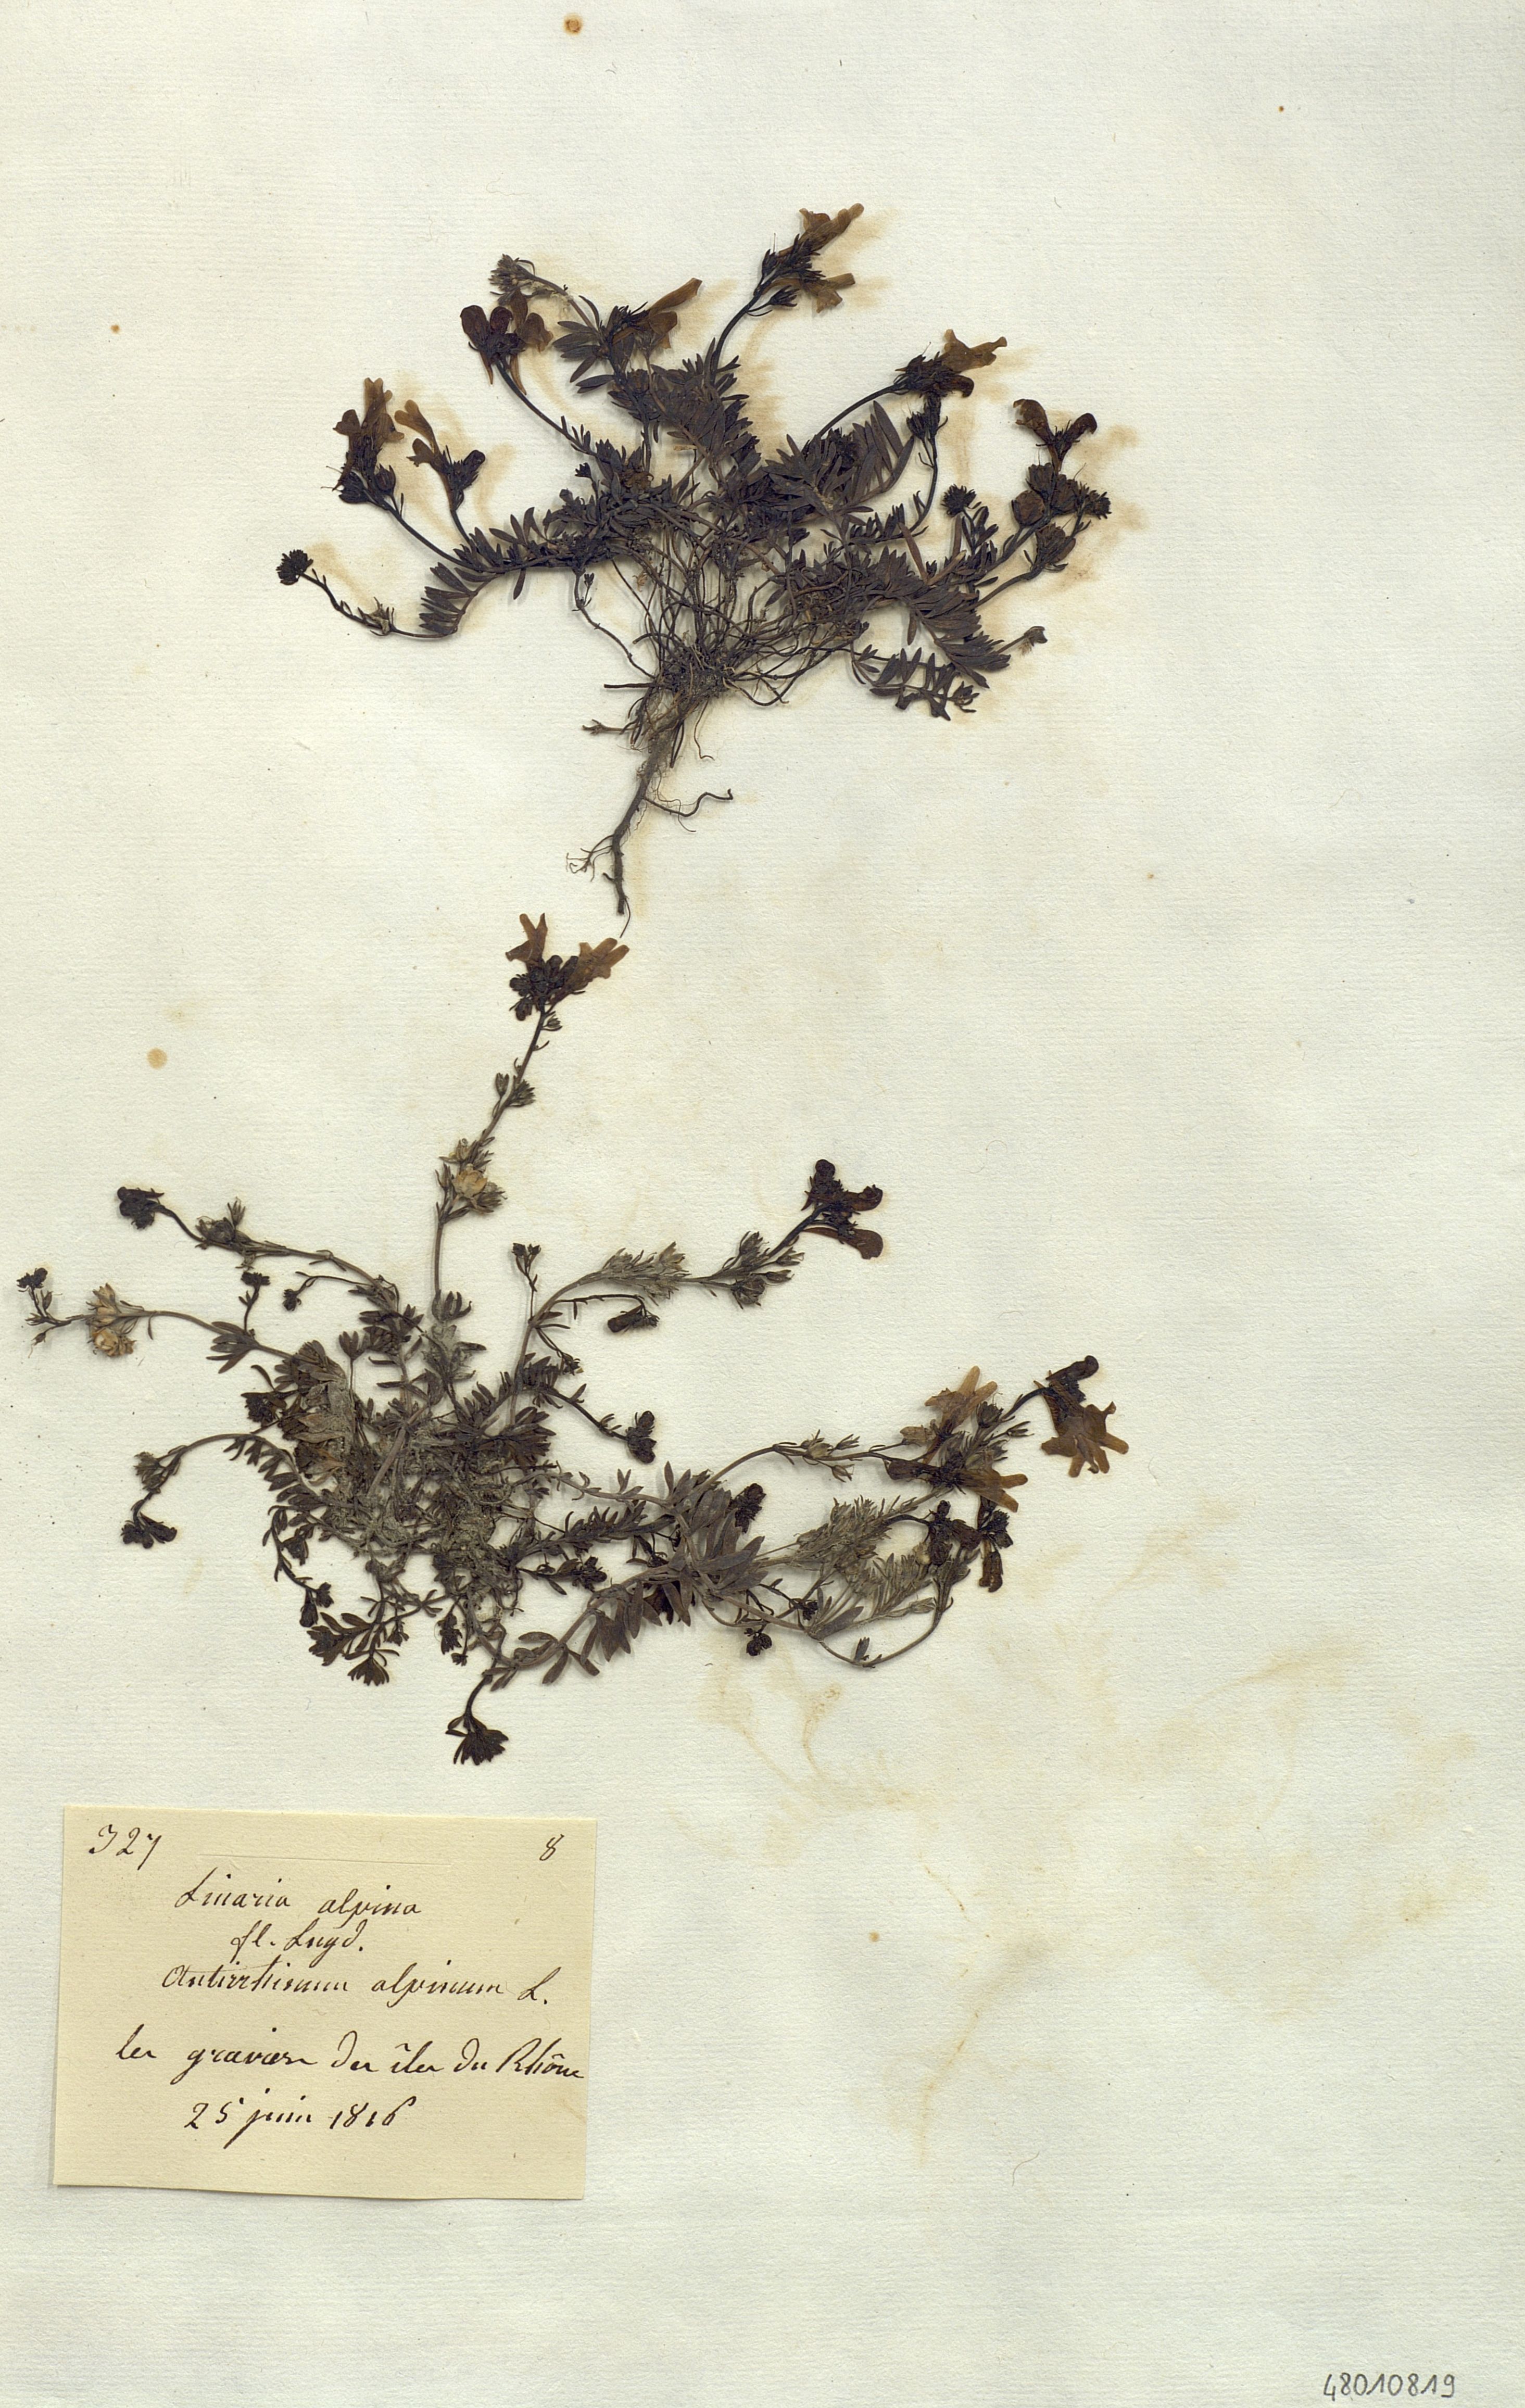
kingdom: Plantae
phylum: Tracheophyta
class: Magnoliopsida
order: Lamiales
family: Plantaginaceae
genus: Linaria
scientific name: Linaria alpina
